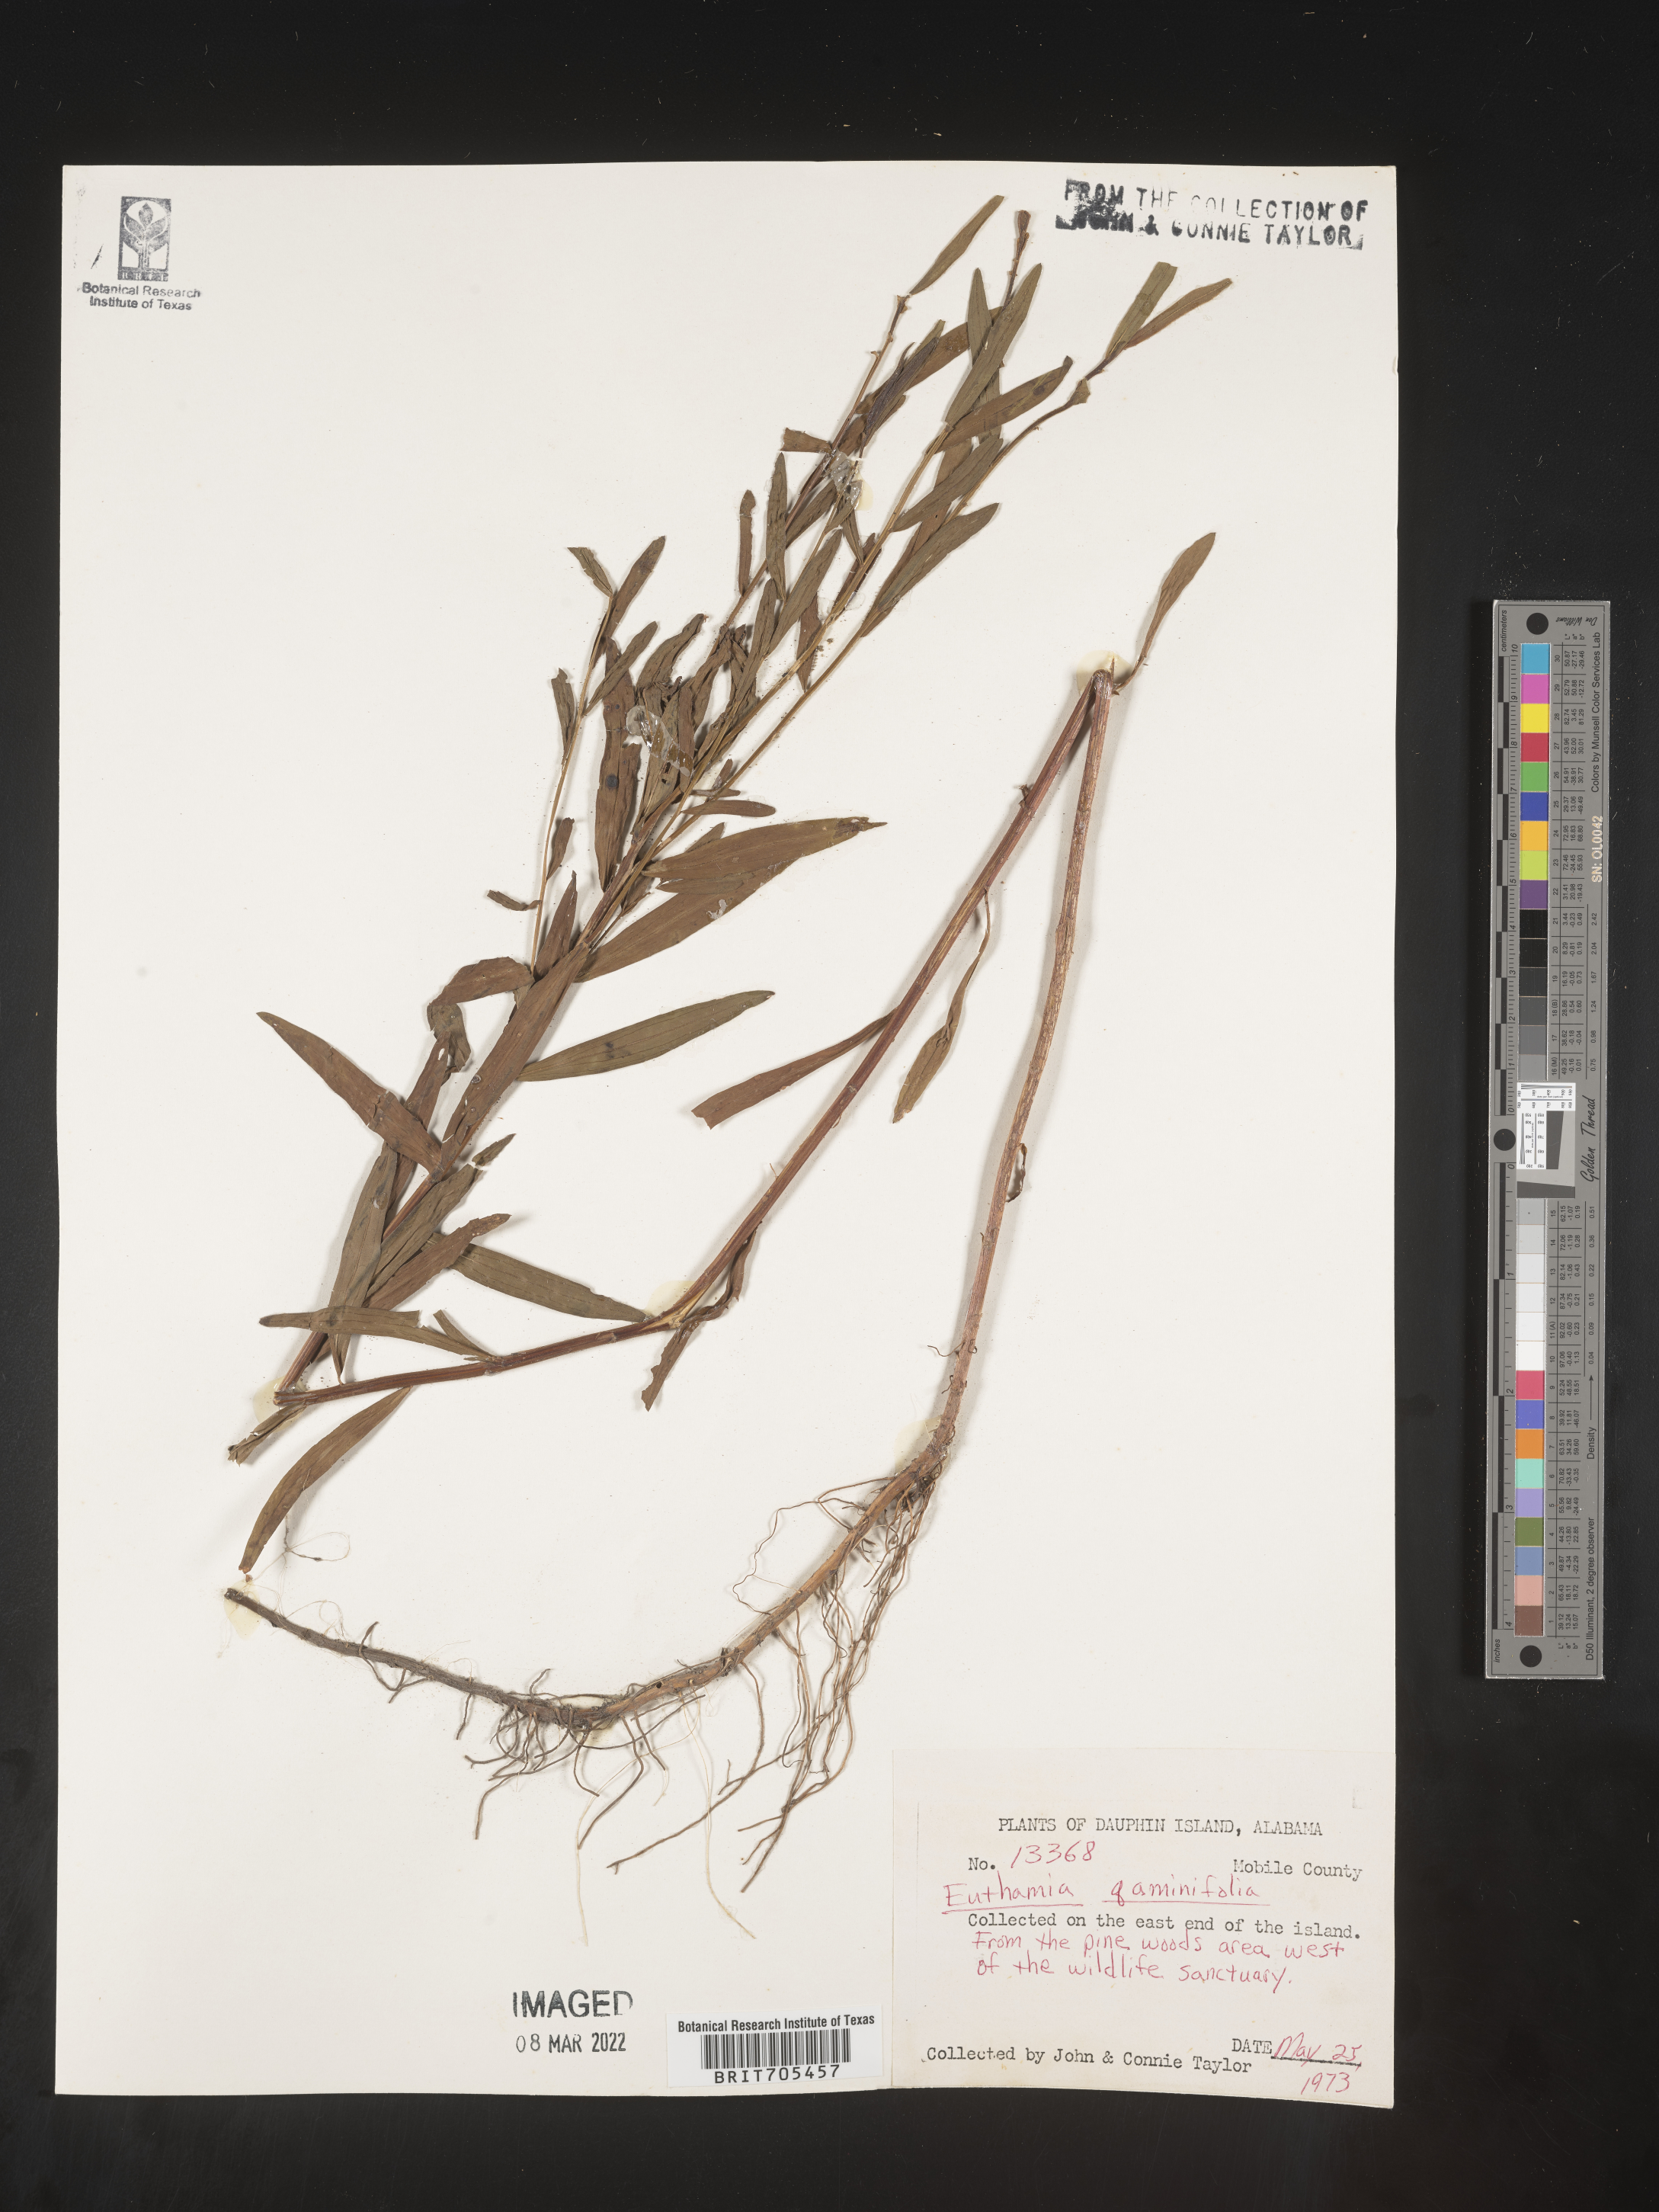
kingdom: Plantae
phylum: Tracheophyta
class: Magnoliopsida
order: Asterales
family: Asteraceae
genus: Euthamia
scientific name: Euthamia graminifolia
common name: Common goldentop
